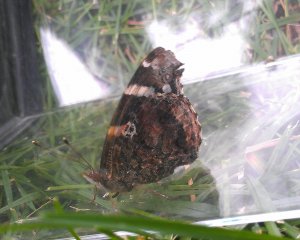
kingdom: Animalia
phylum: Arthropoda
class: Insecta
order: Lepidoptera
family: Nymphalidae
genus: Vanessa
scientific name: Vanessa atalanta
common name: Red Admiral
